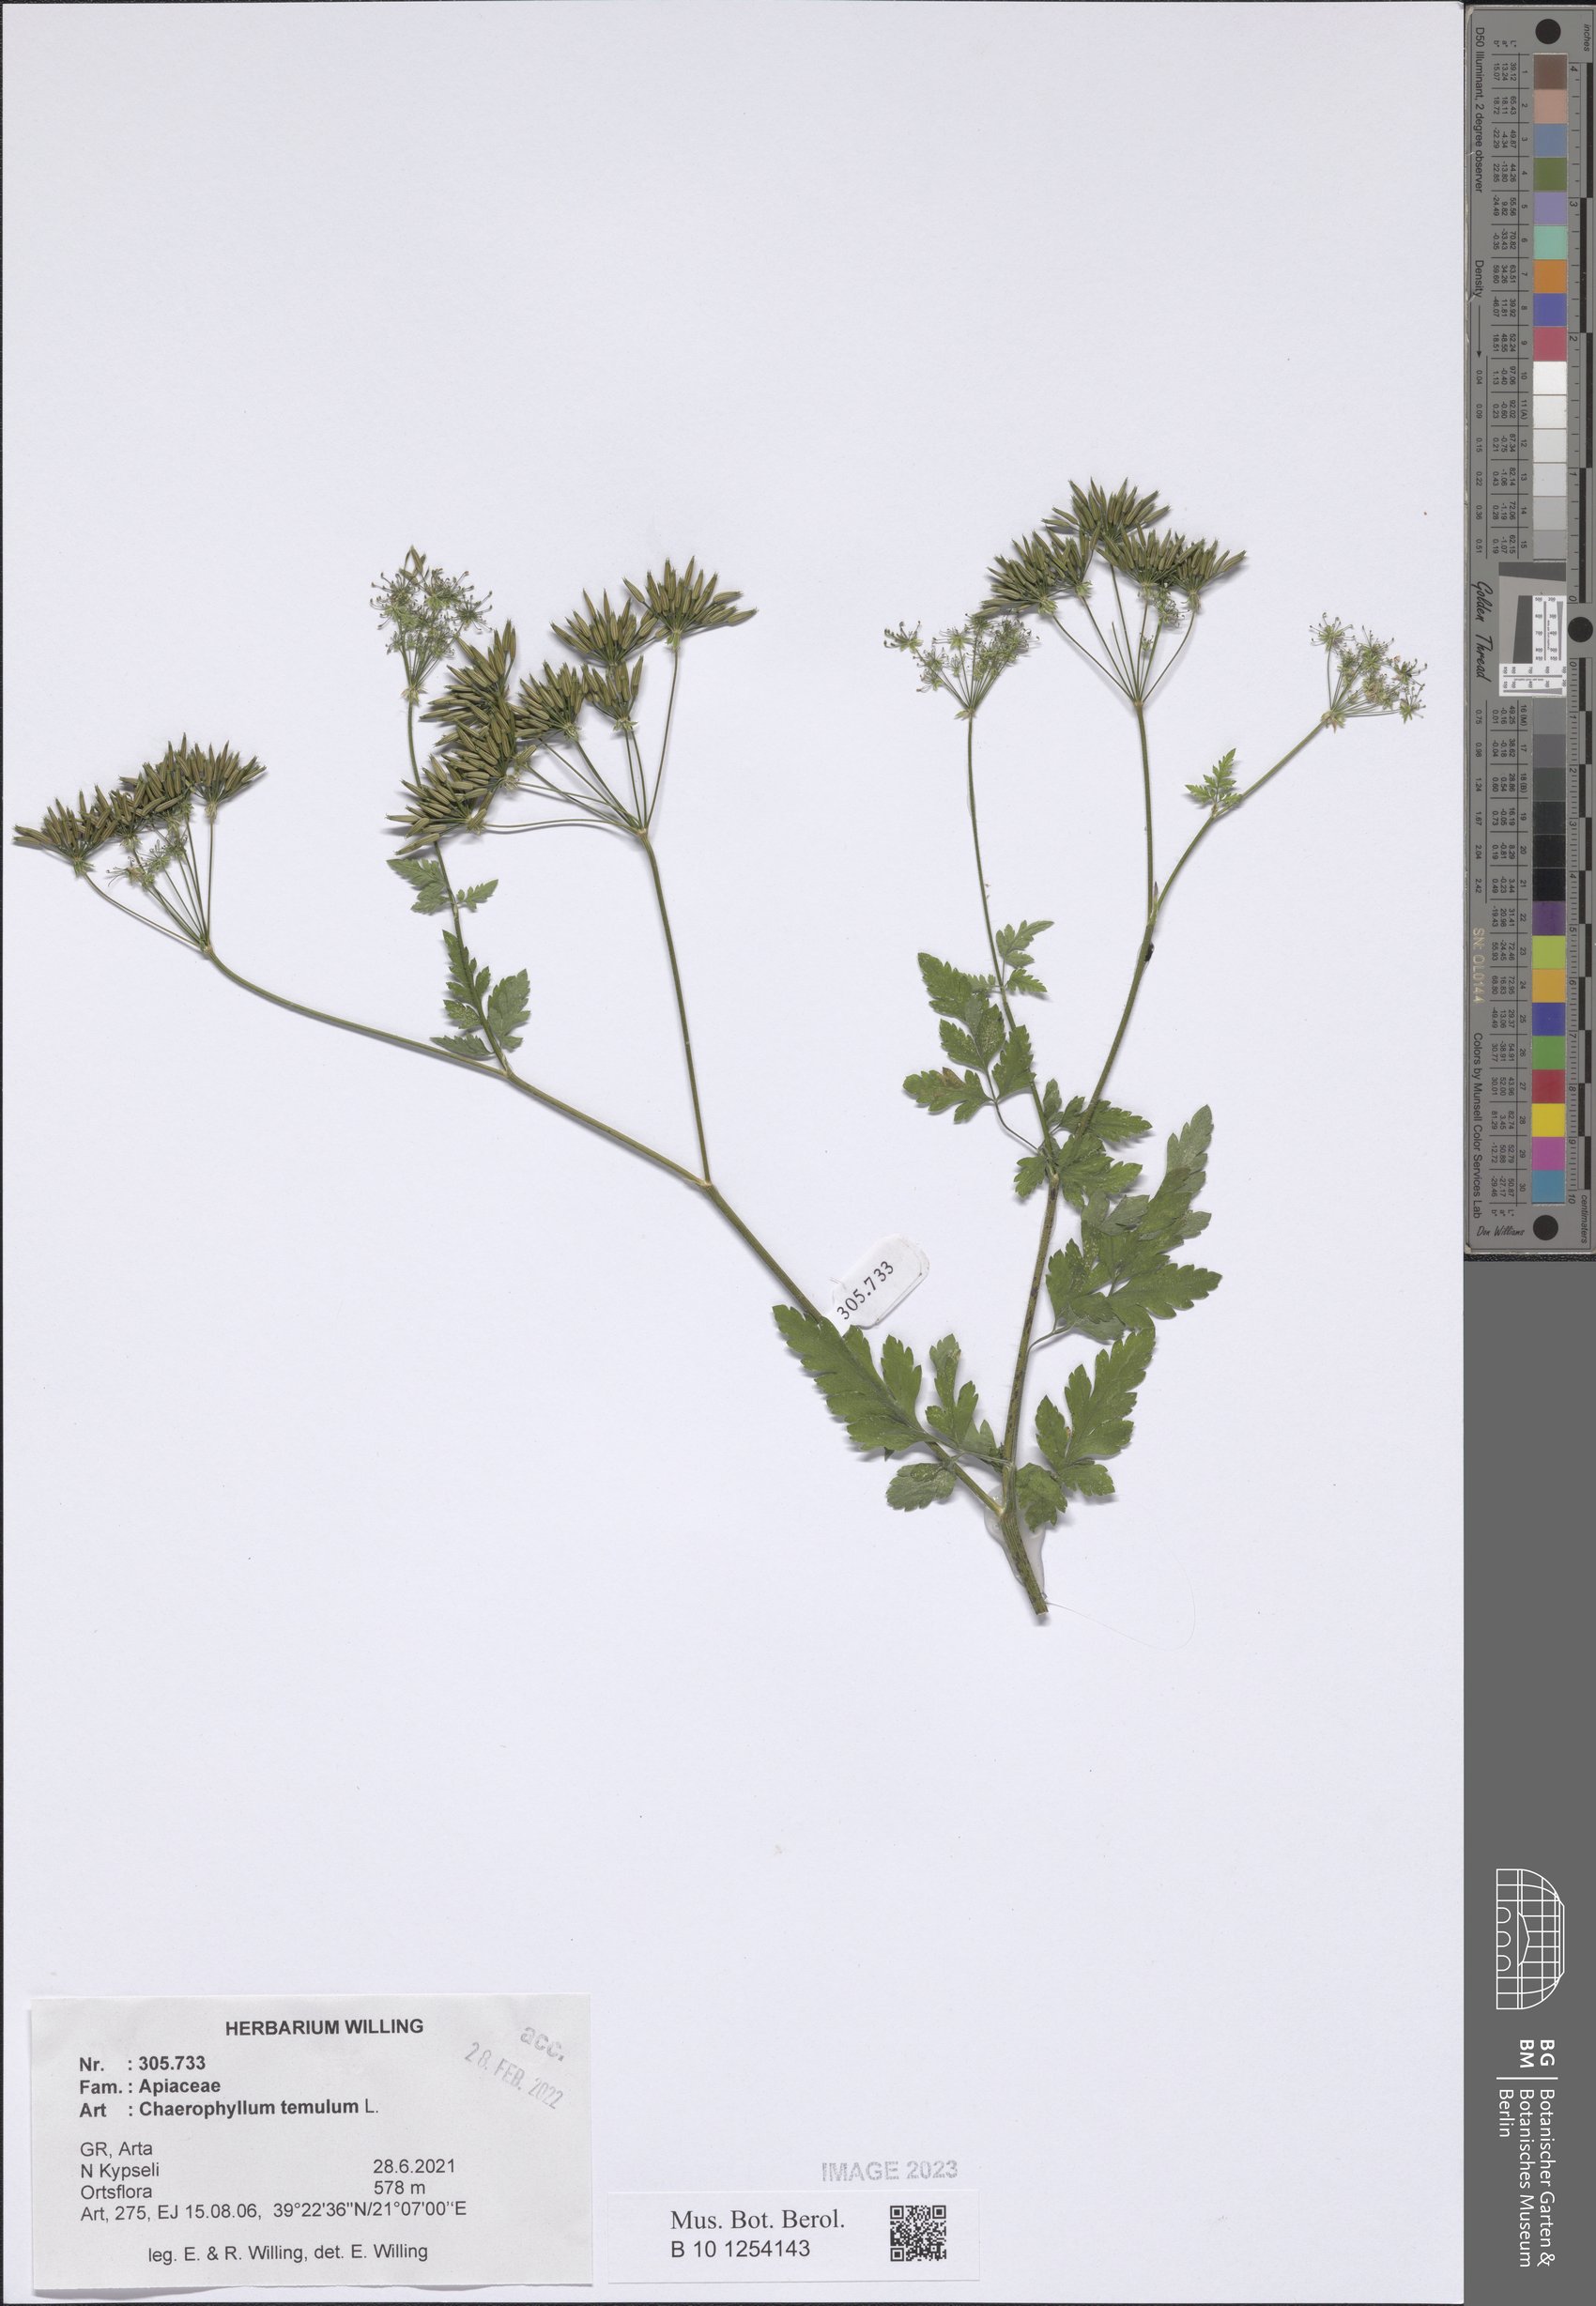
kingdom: Plantae
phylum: Tracheophyta
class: Magnoliopsida
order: Apiales
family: Apiaceae
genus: Chaerophyllum
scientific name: Chaerophyllum temulum
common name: Rough chervil
